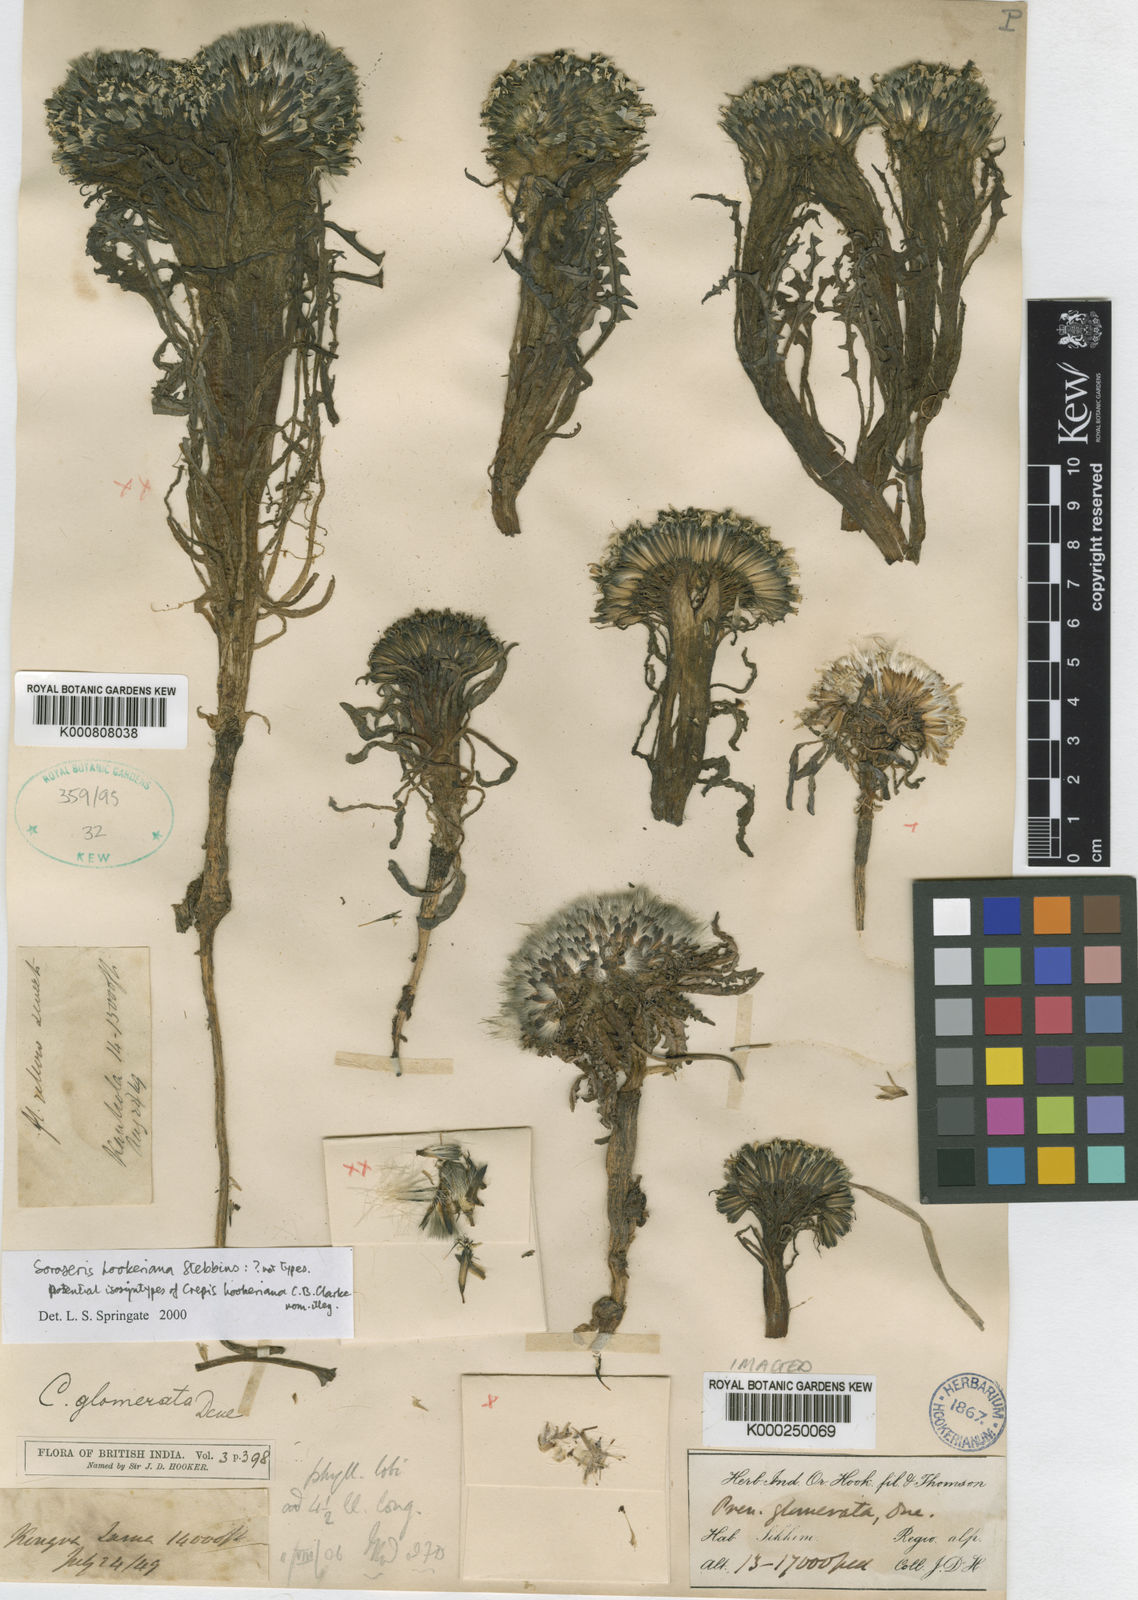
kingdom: Plantae
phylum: Tracheophyta
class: Magnoliopsida
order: Asterales
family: Asteraceae
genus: Soroseris
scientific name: Soroseris hookeriana
